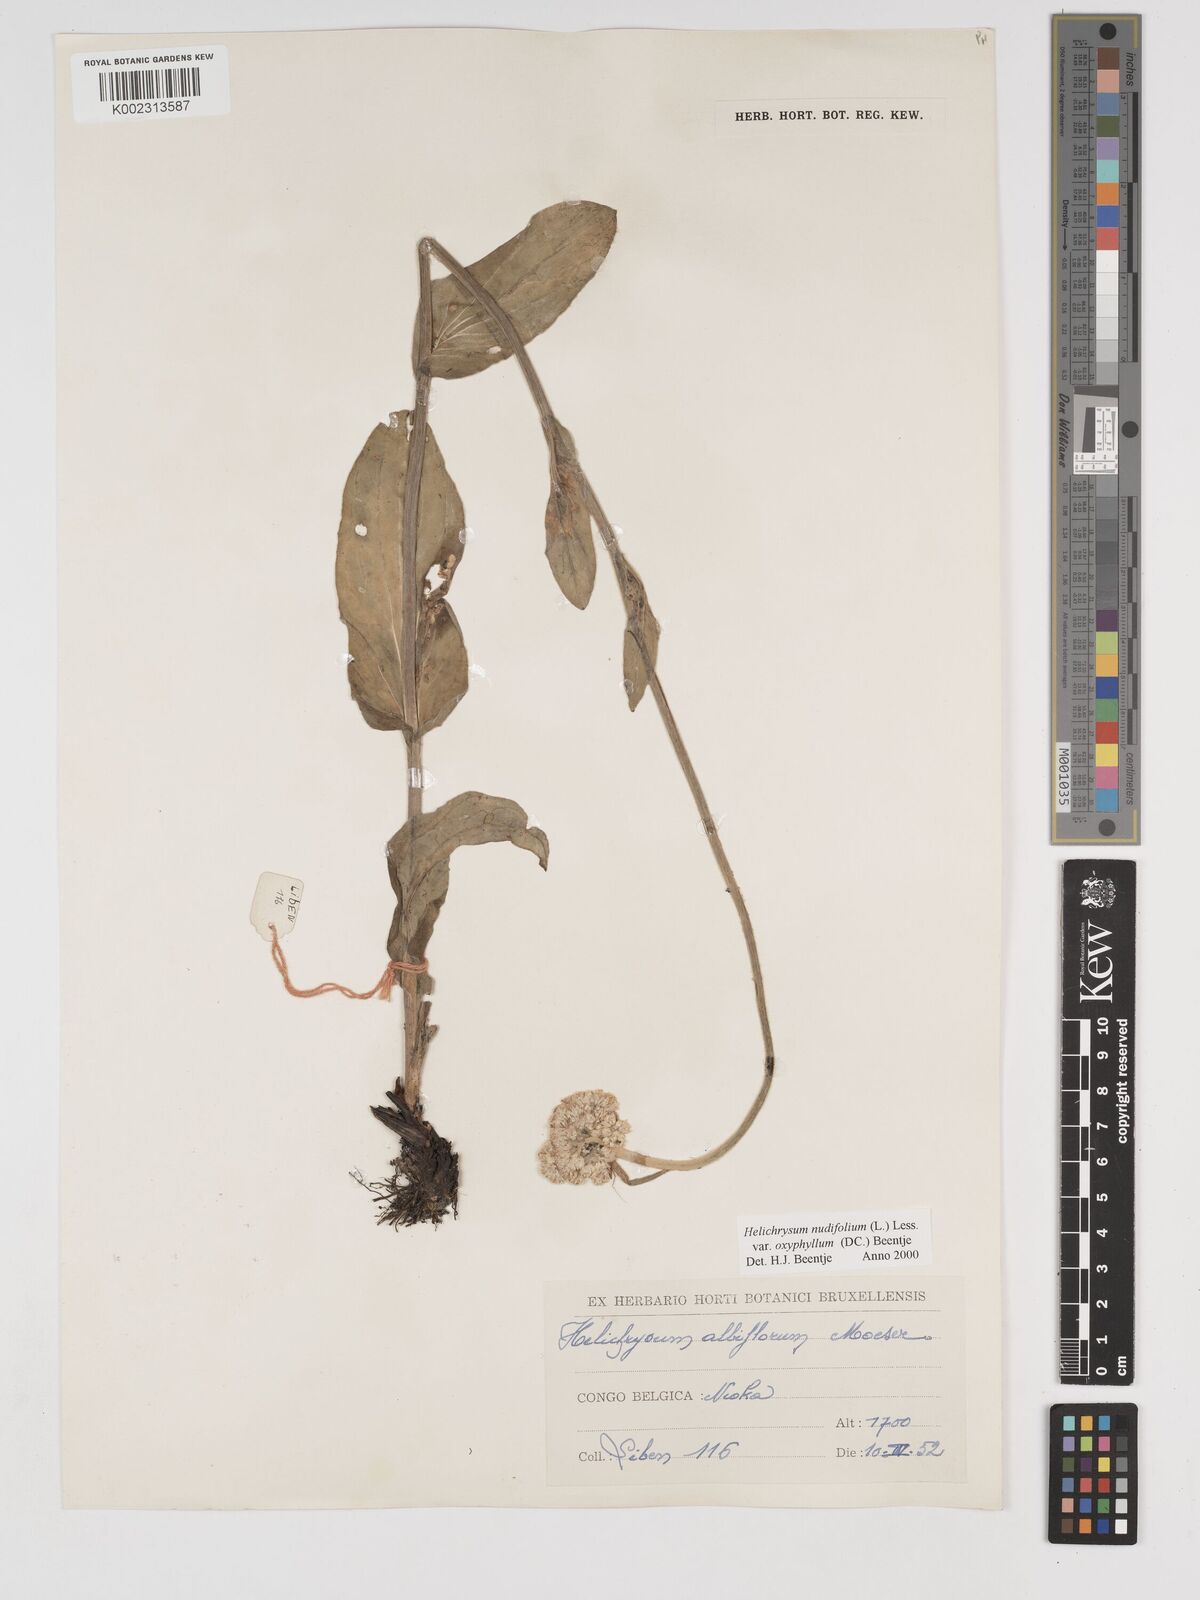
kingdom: Plantae
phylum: Tracheophyta
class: Magnoliopsida
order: Asterales
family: Asteraceae
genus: Helichrysum
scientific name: Helichrysum nudifolium
